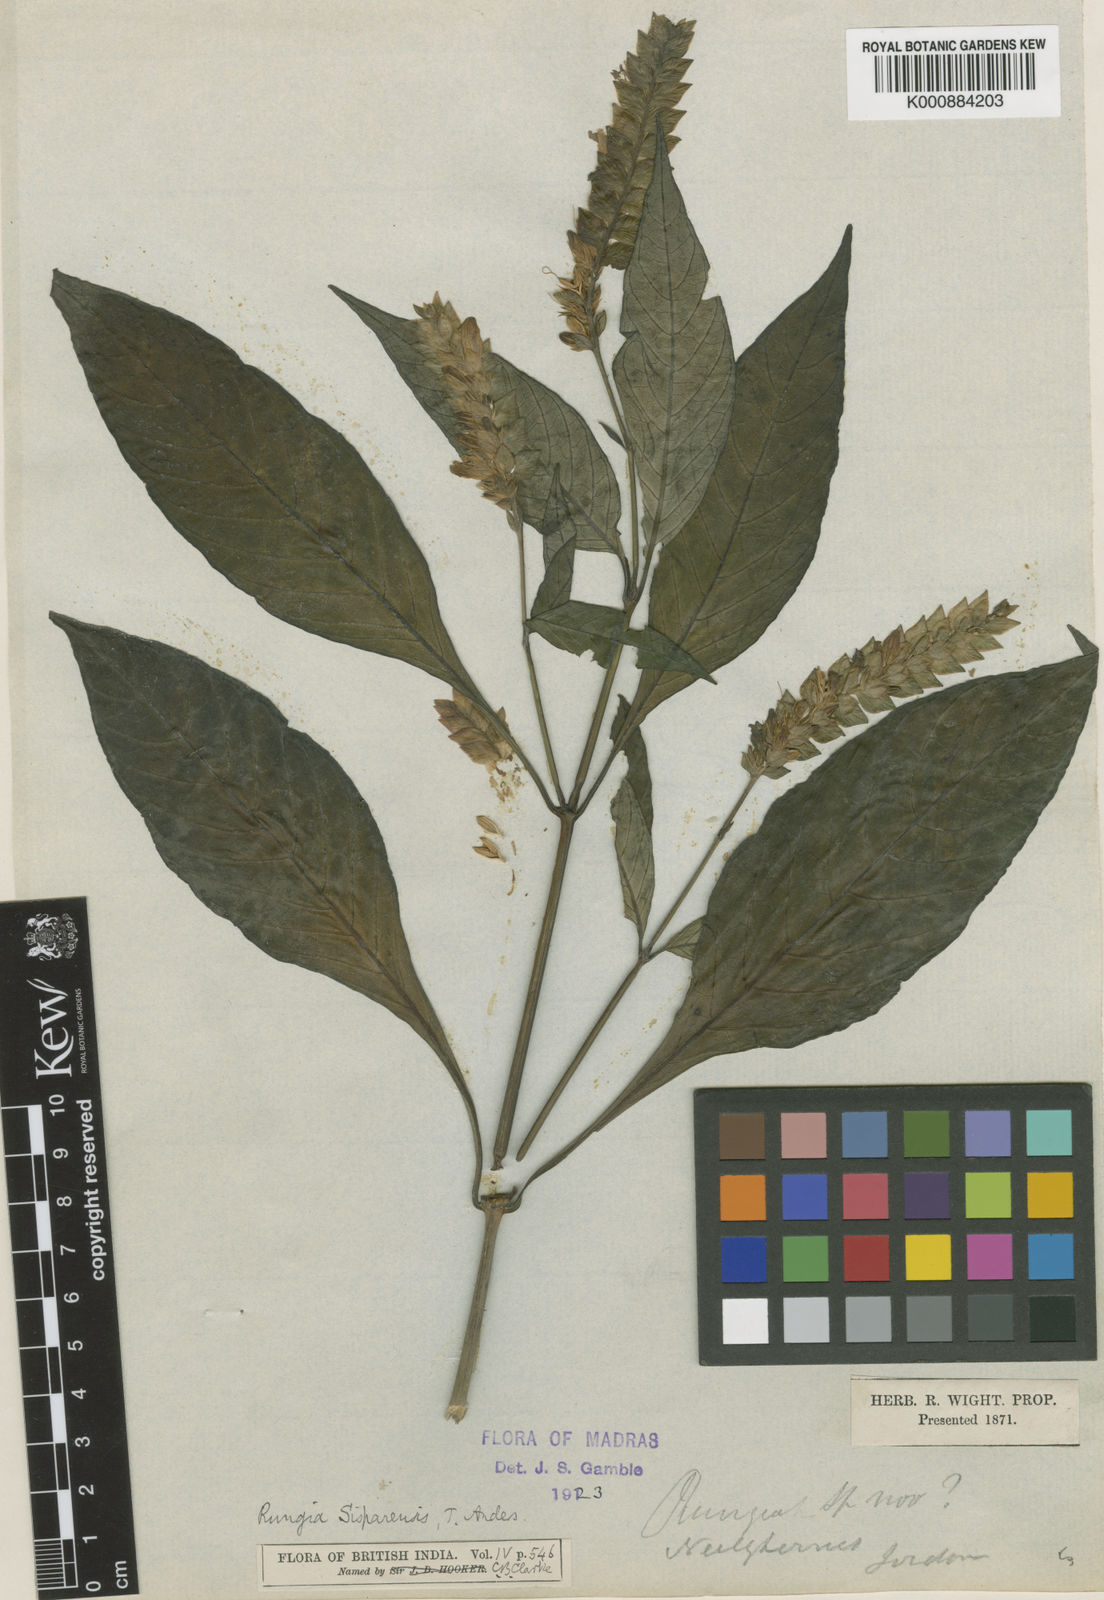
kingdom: Plantae
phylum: Tracheophyta
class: Magnoliopsida
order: Lamiales
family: Acanthaceae
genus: Justicia
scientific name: Justicia
